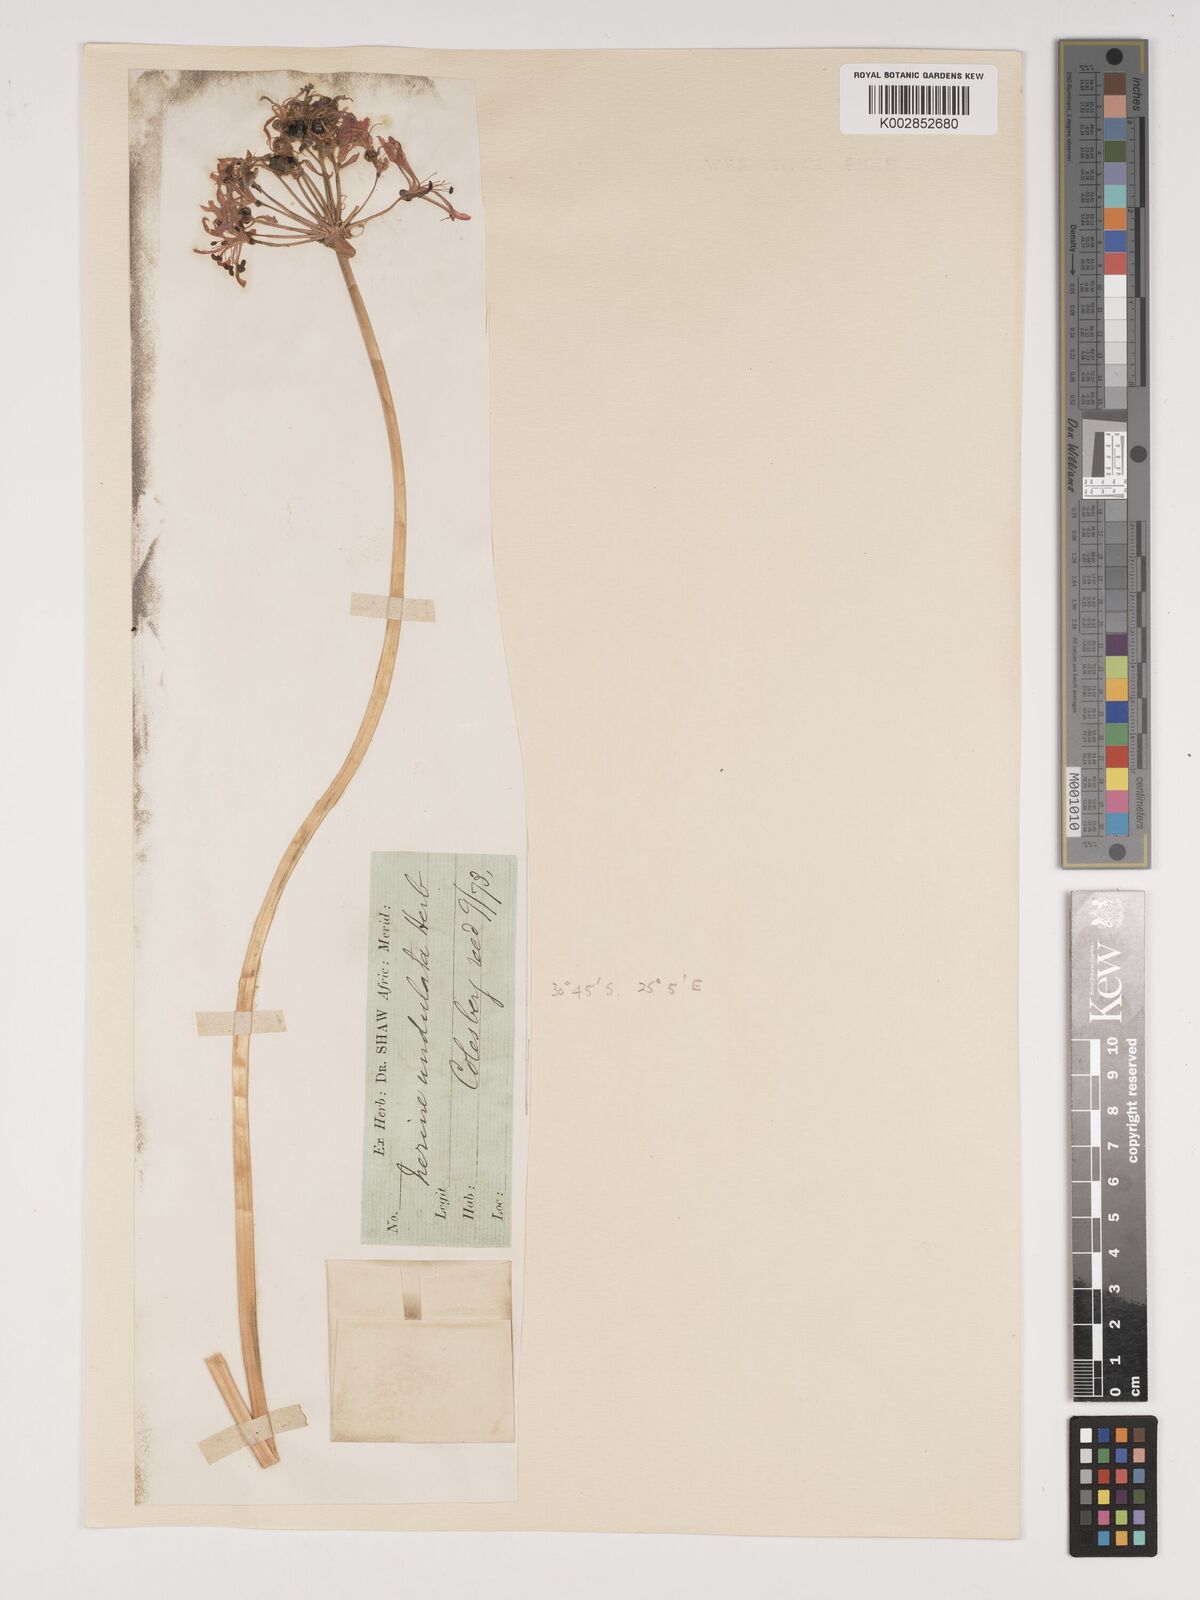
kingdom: Plantae
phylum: Tracheophyta
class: Liliopsida
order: Asparagales
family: Amaryllidaceae
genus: Nerine
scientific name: Nerine undulata
